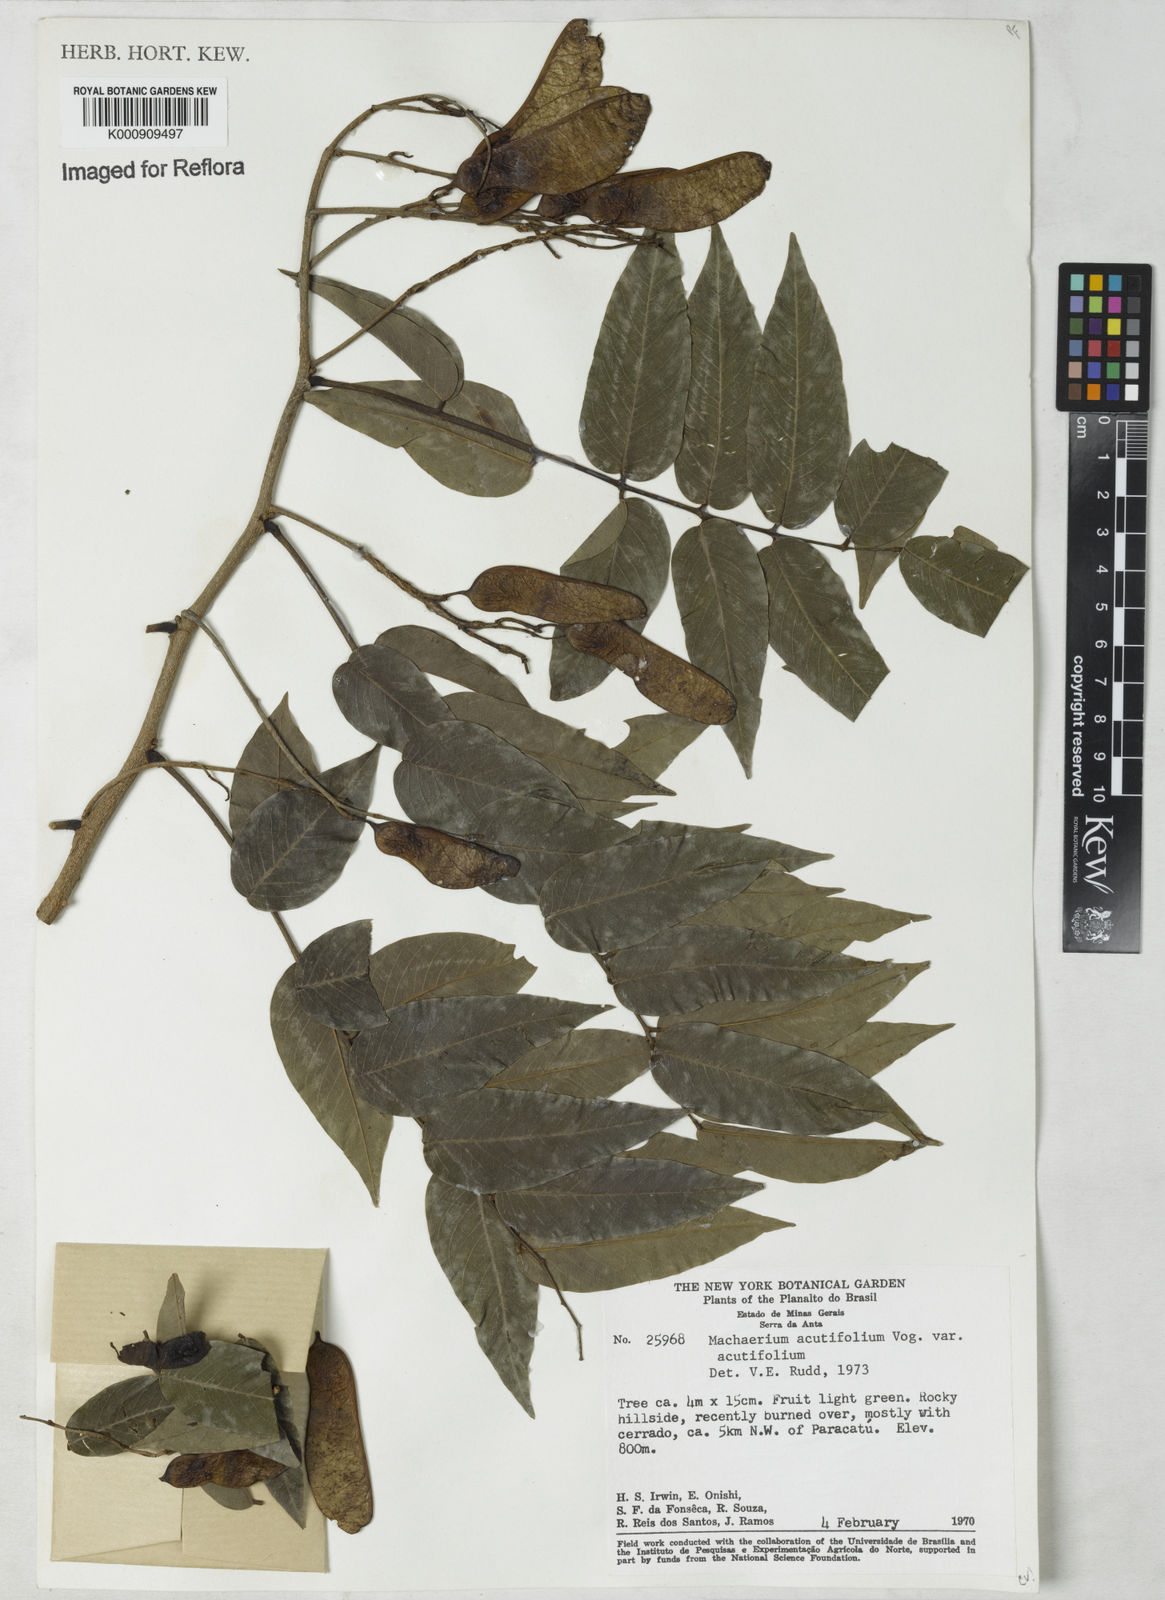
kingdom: Plantae
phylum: Tracheophyta
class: Magnoliopsida
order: Fabales
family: Fabaceae
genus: Machaerium
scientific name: Machaerium acutifolium
